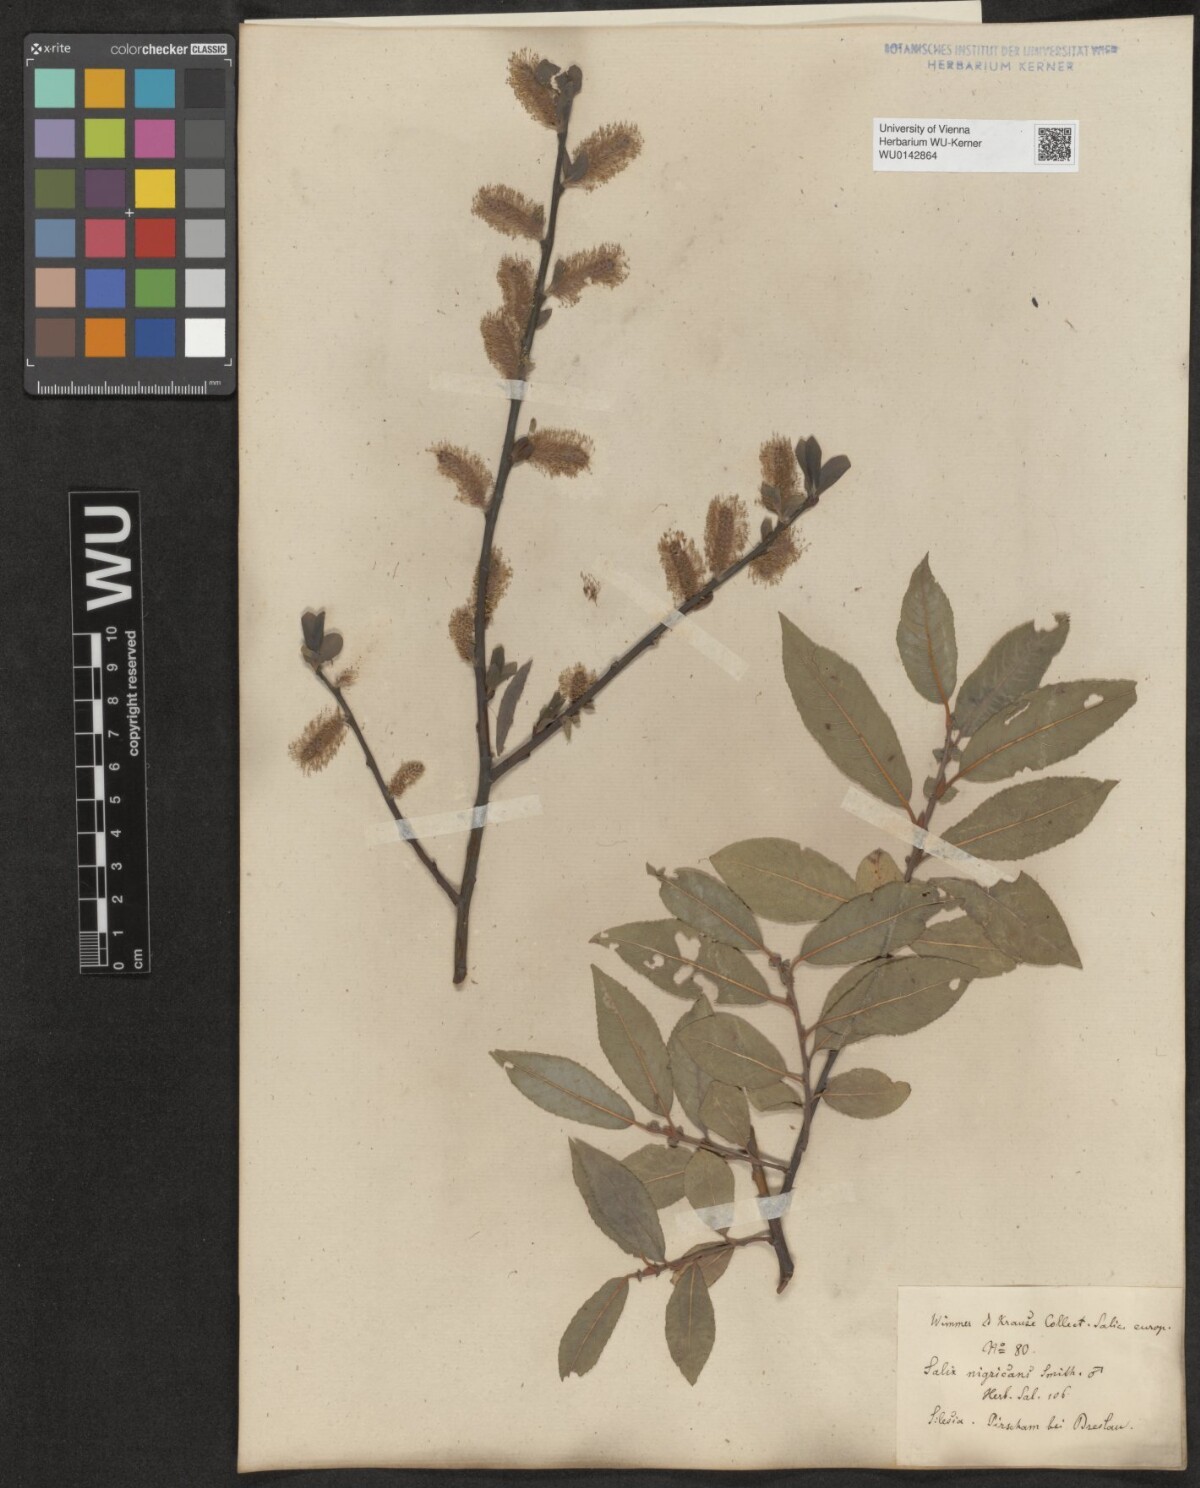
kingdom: Plantae
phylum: Tracheophyta
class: Magnoliopsida
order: Malpighiales
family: Salicaceae
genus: Salix
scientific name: Salix myrsinifolia
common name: Dark-leaved willow
